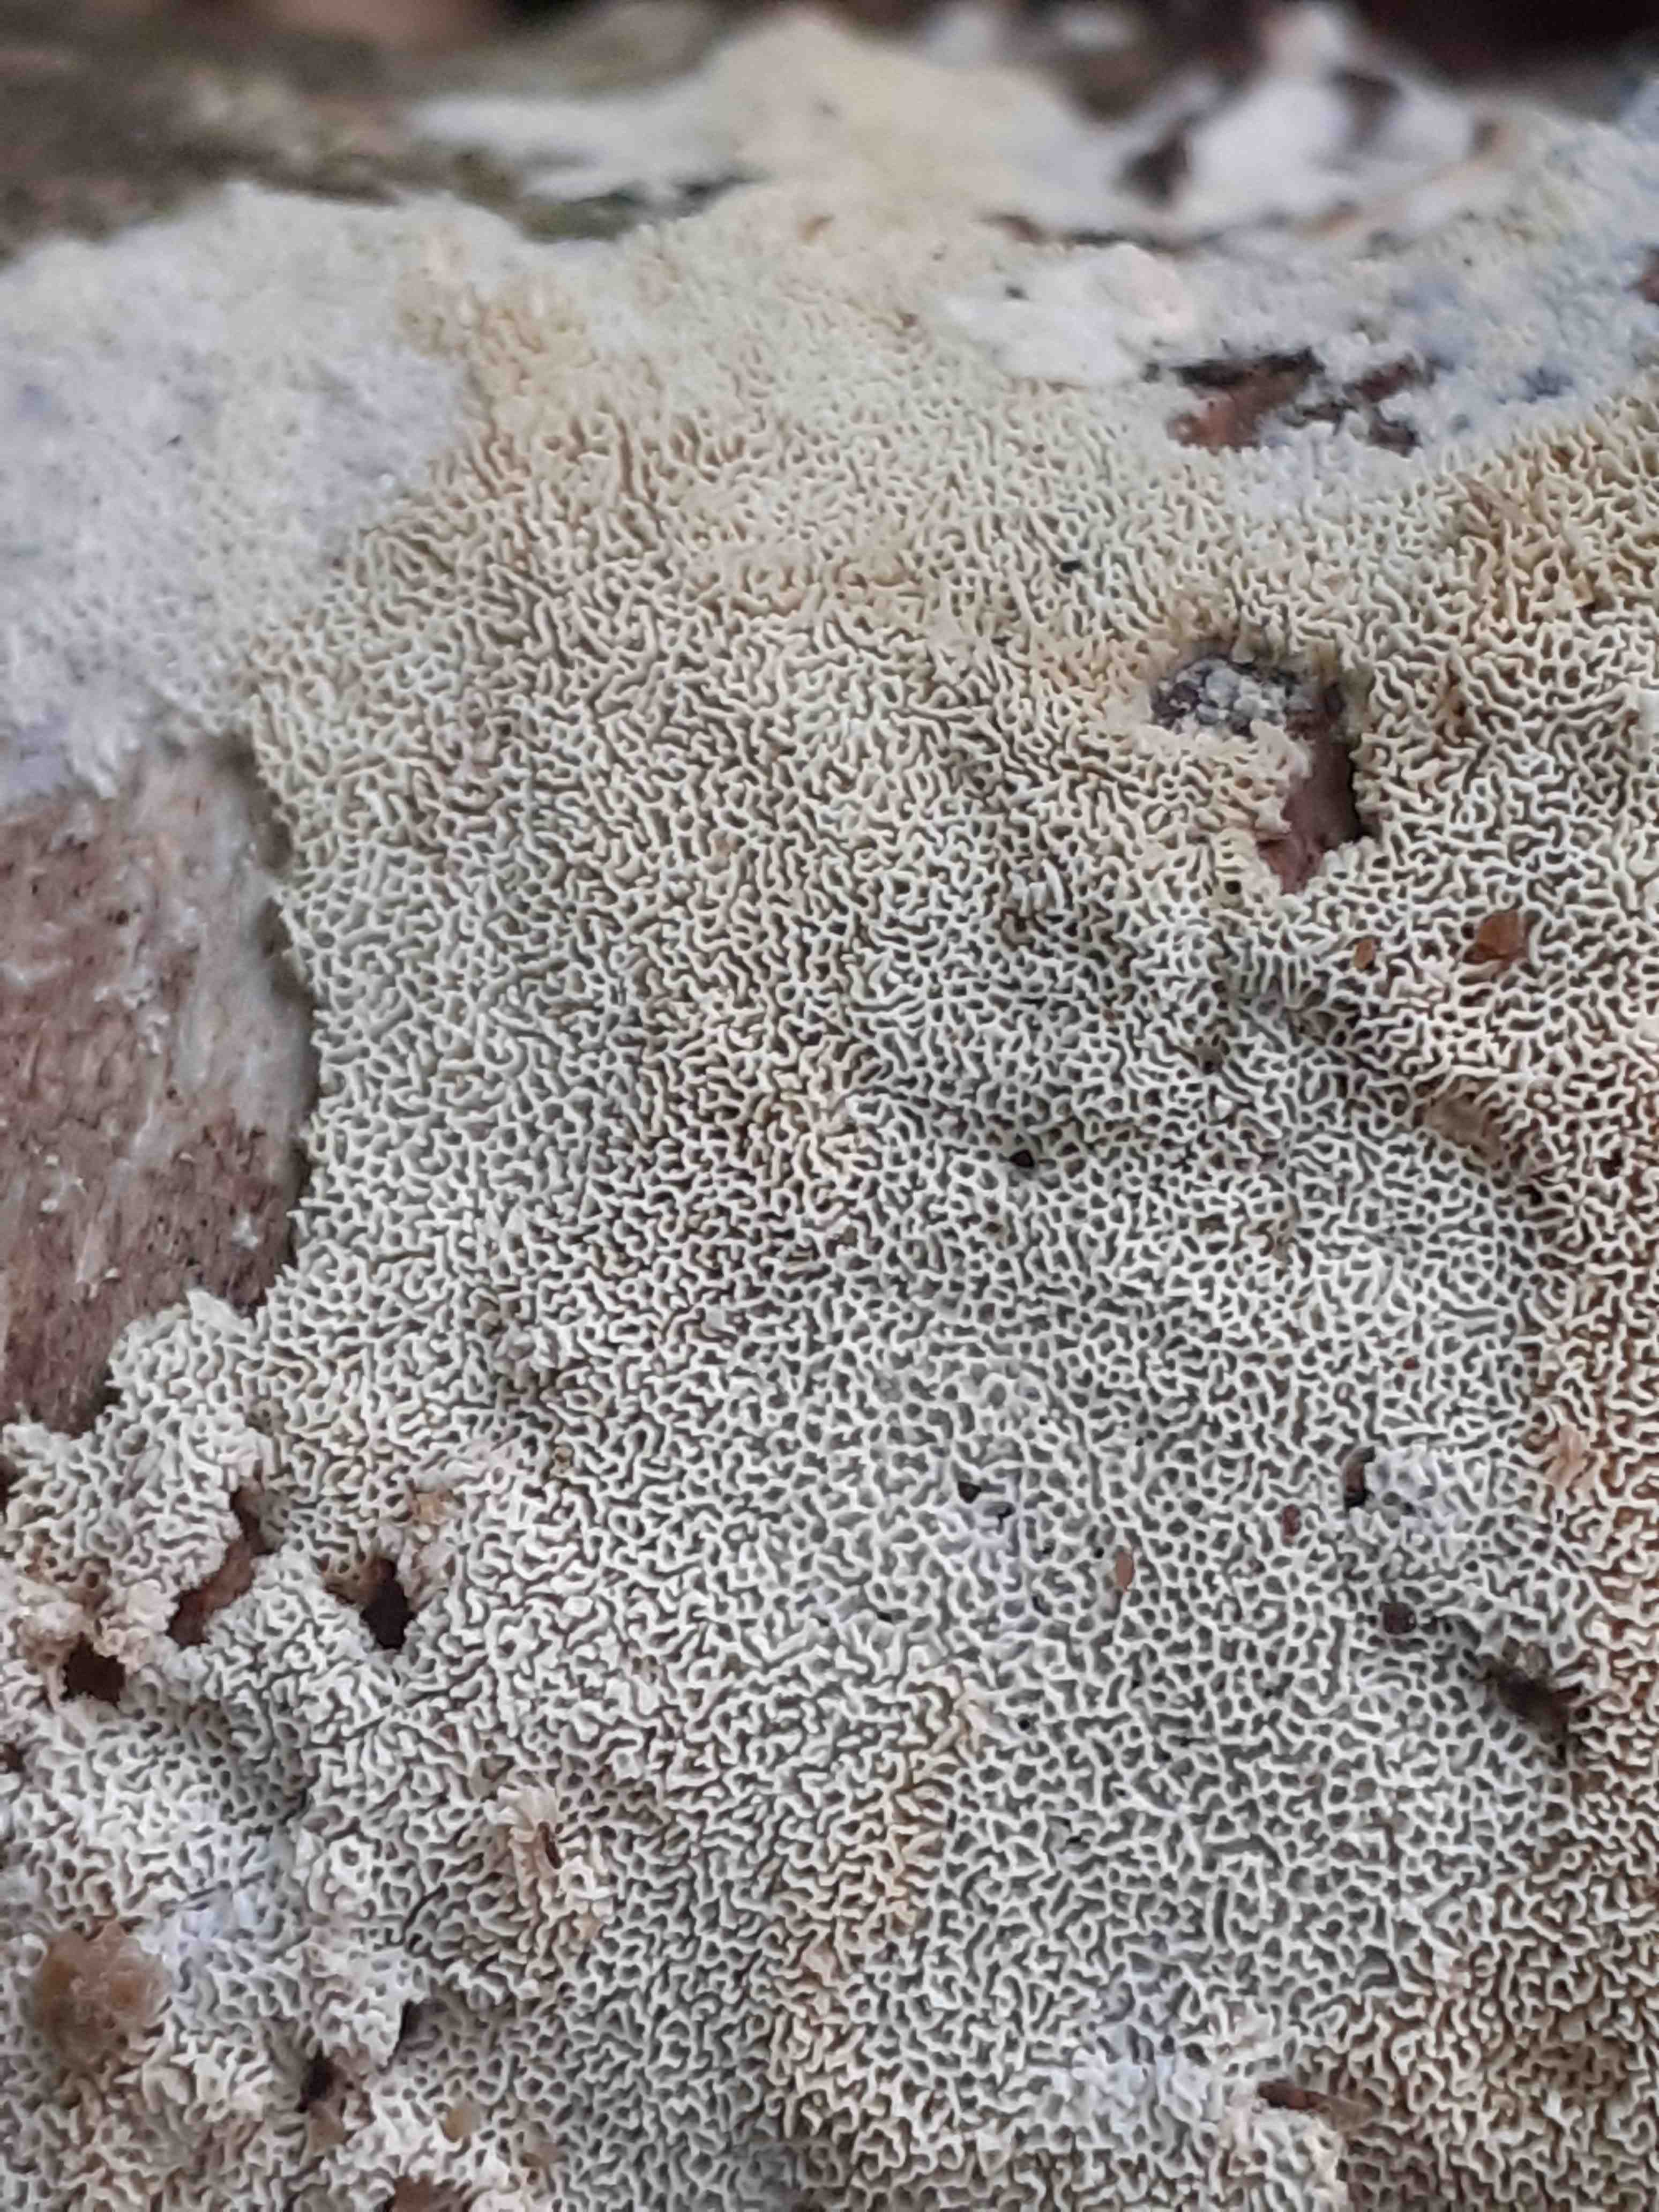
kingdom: Fungi
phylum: Basidiomycota
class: Agaricomycetes
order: Hymenochaetales
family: Schizoporaceae
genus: Xylodon
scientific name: Xylodon subtropicus
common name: labyrint-tandsvamp
